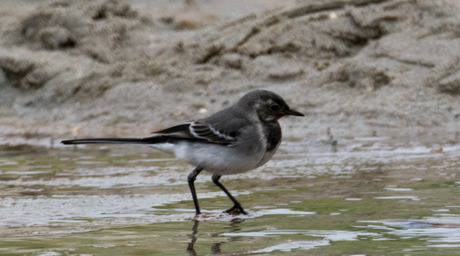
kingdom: Animalia
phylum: Chordata
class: Aves
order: Passeriformes
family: Motacillidae
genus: Motacilla
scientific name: Motacilla alba
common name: Hvid vipstjert
